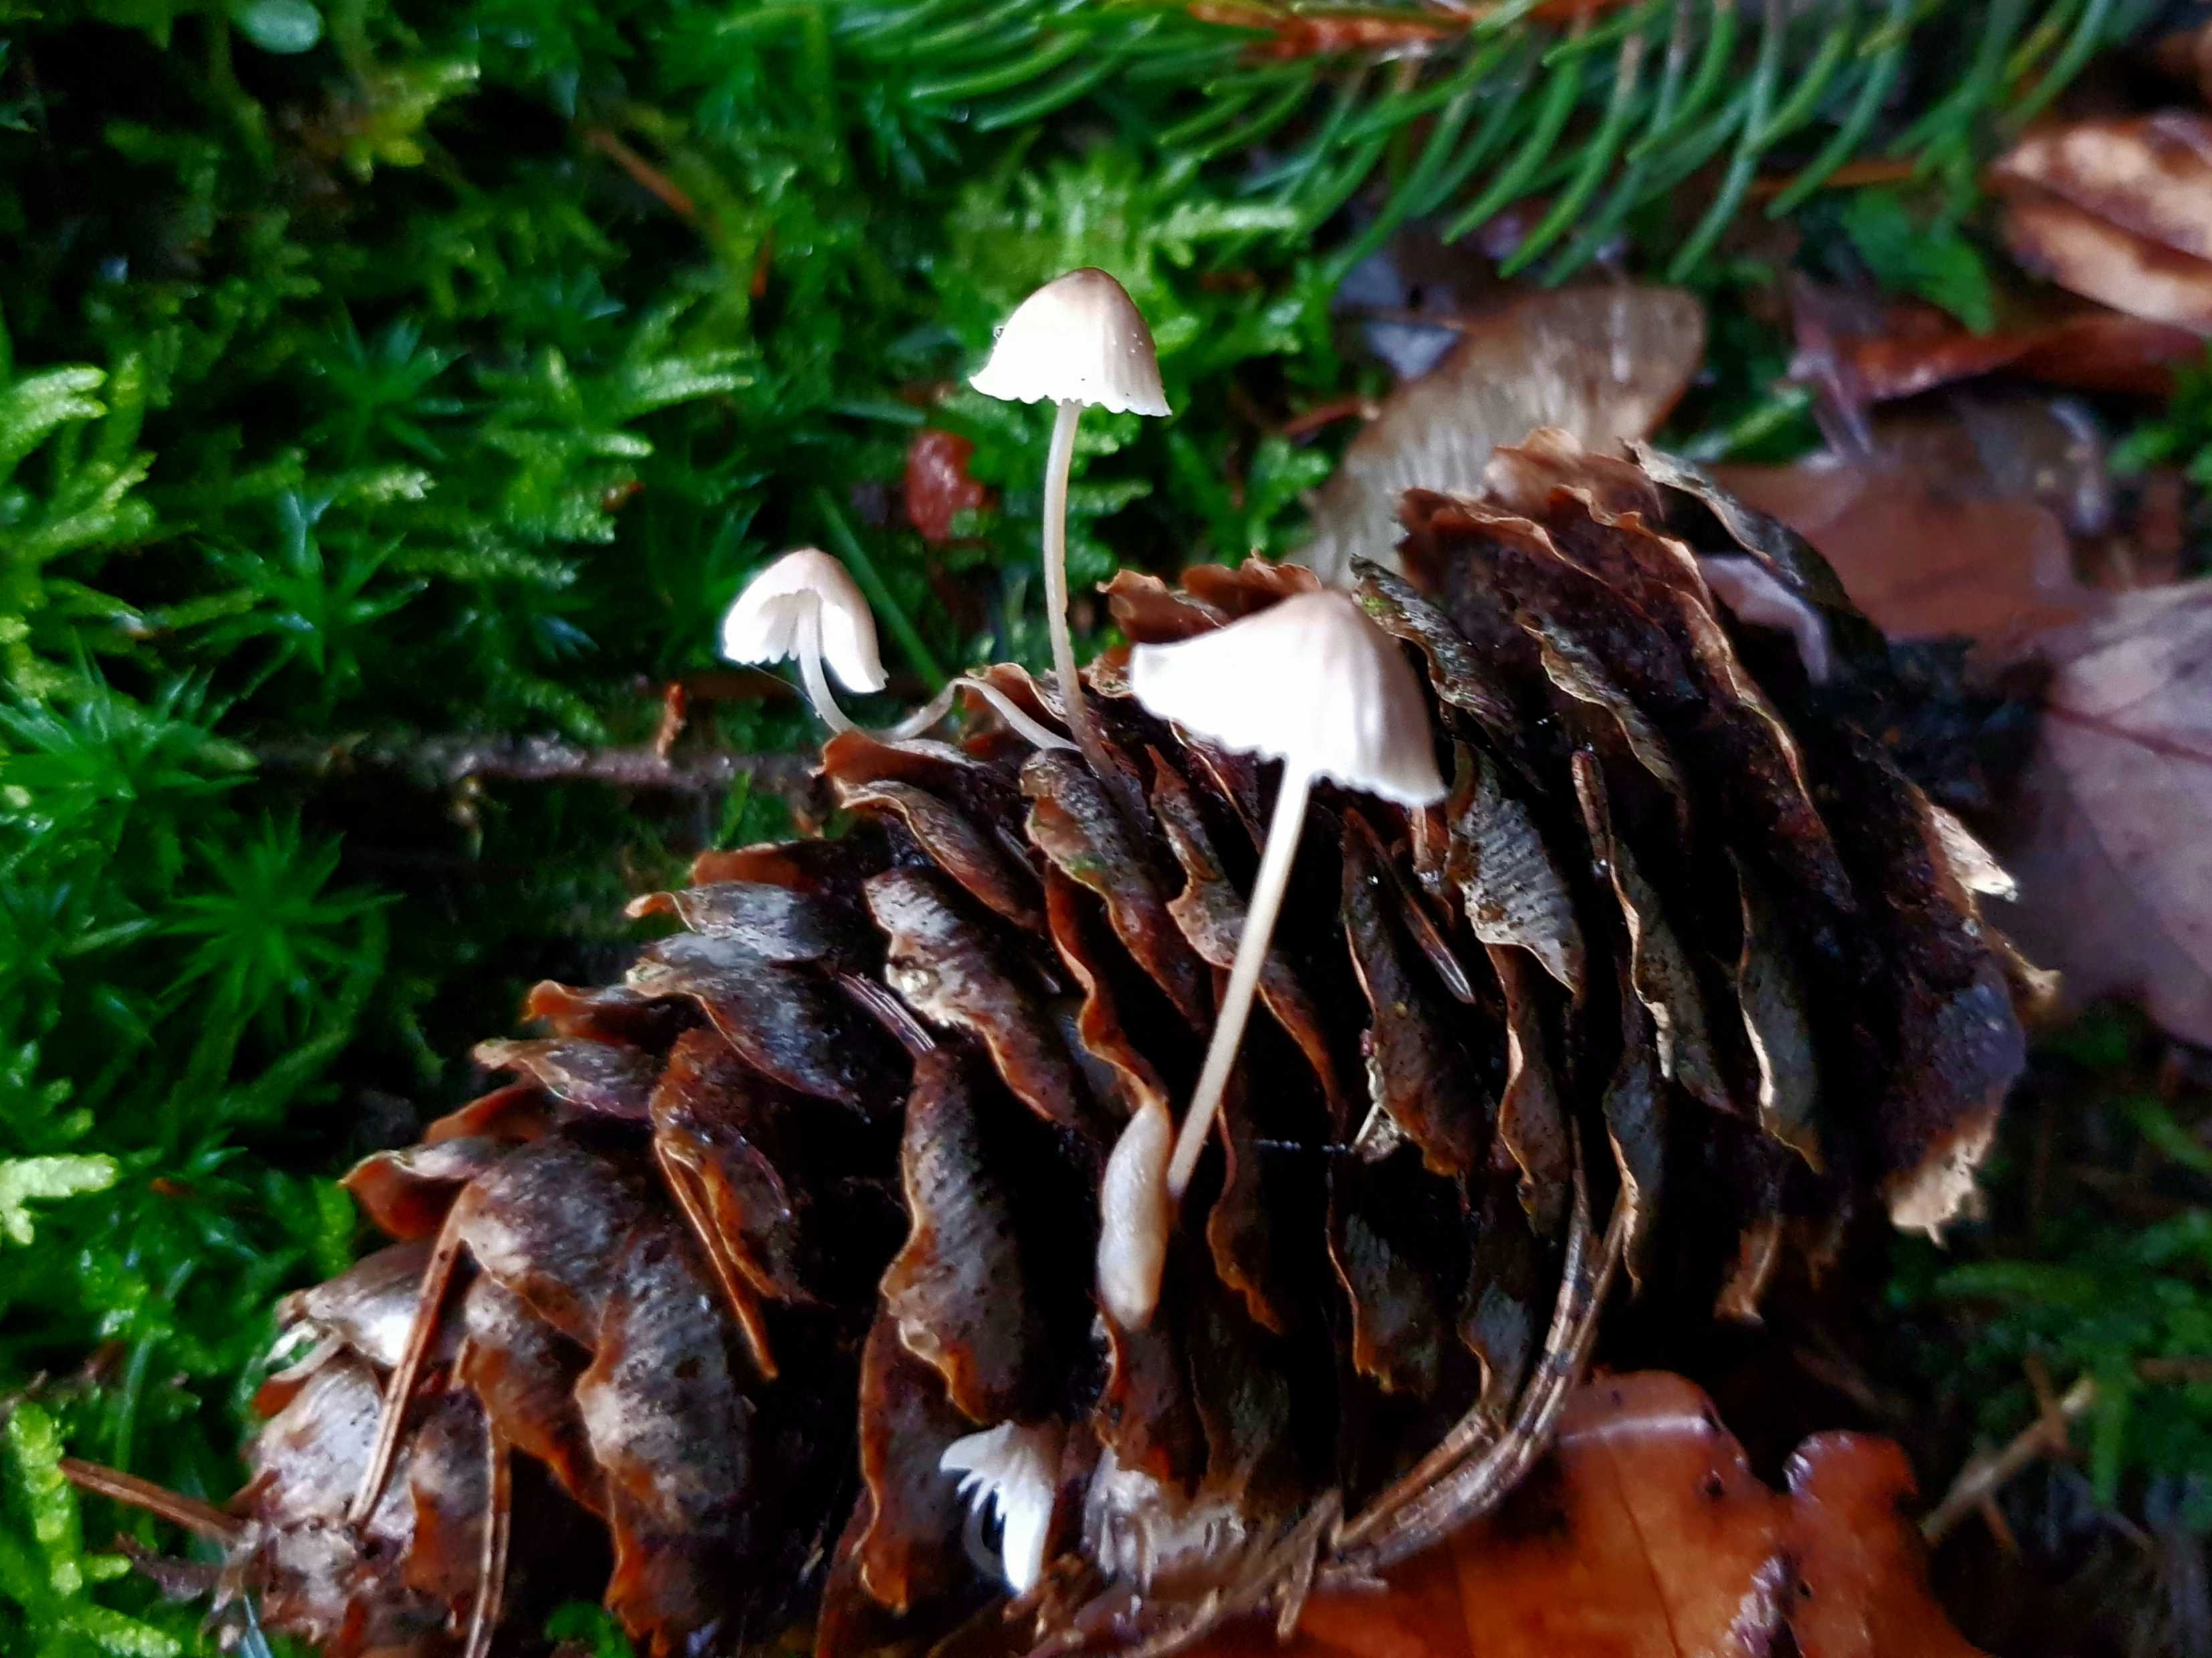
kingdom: Fungi
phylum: Basidiomycota
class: Agaricomycetes
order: Agaricales
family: Mycenaceae
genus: Mycena
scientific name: Mycena
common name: huesvamp
